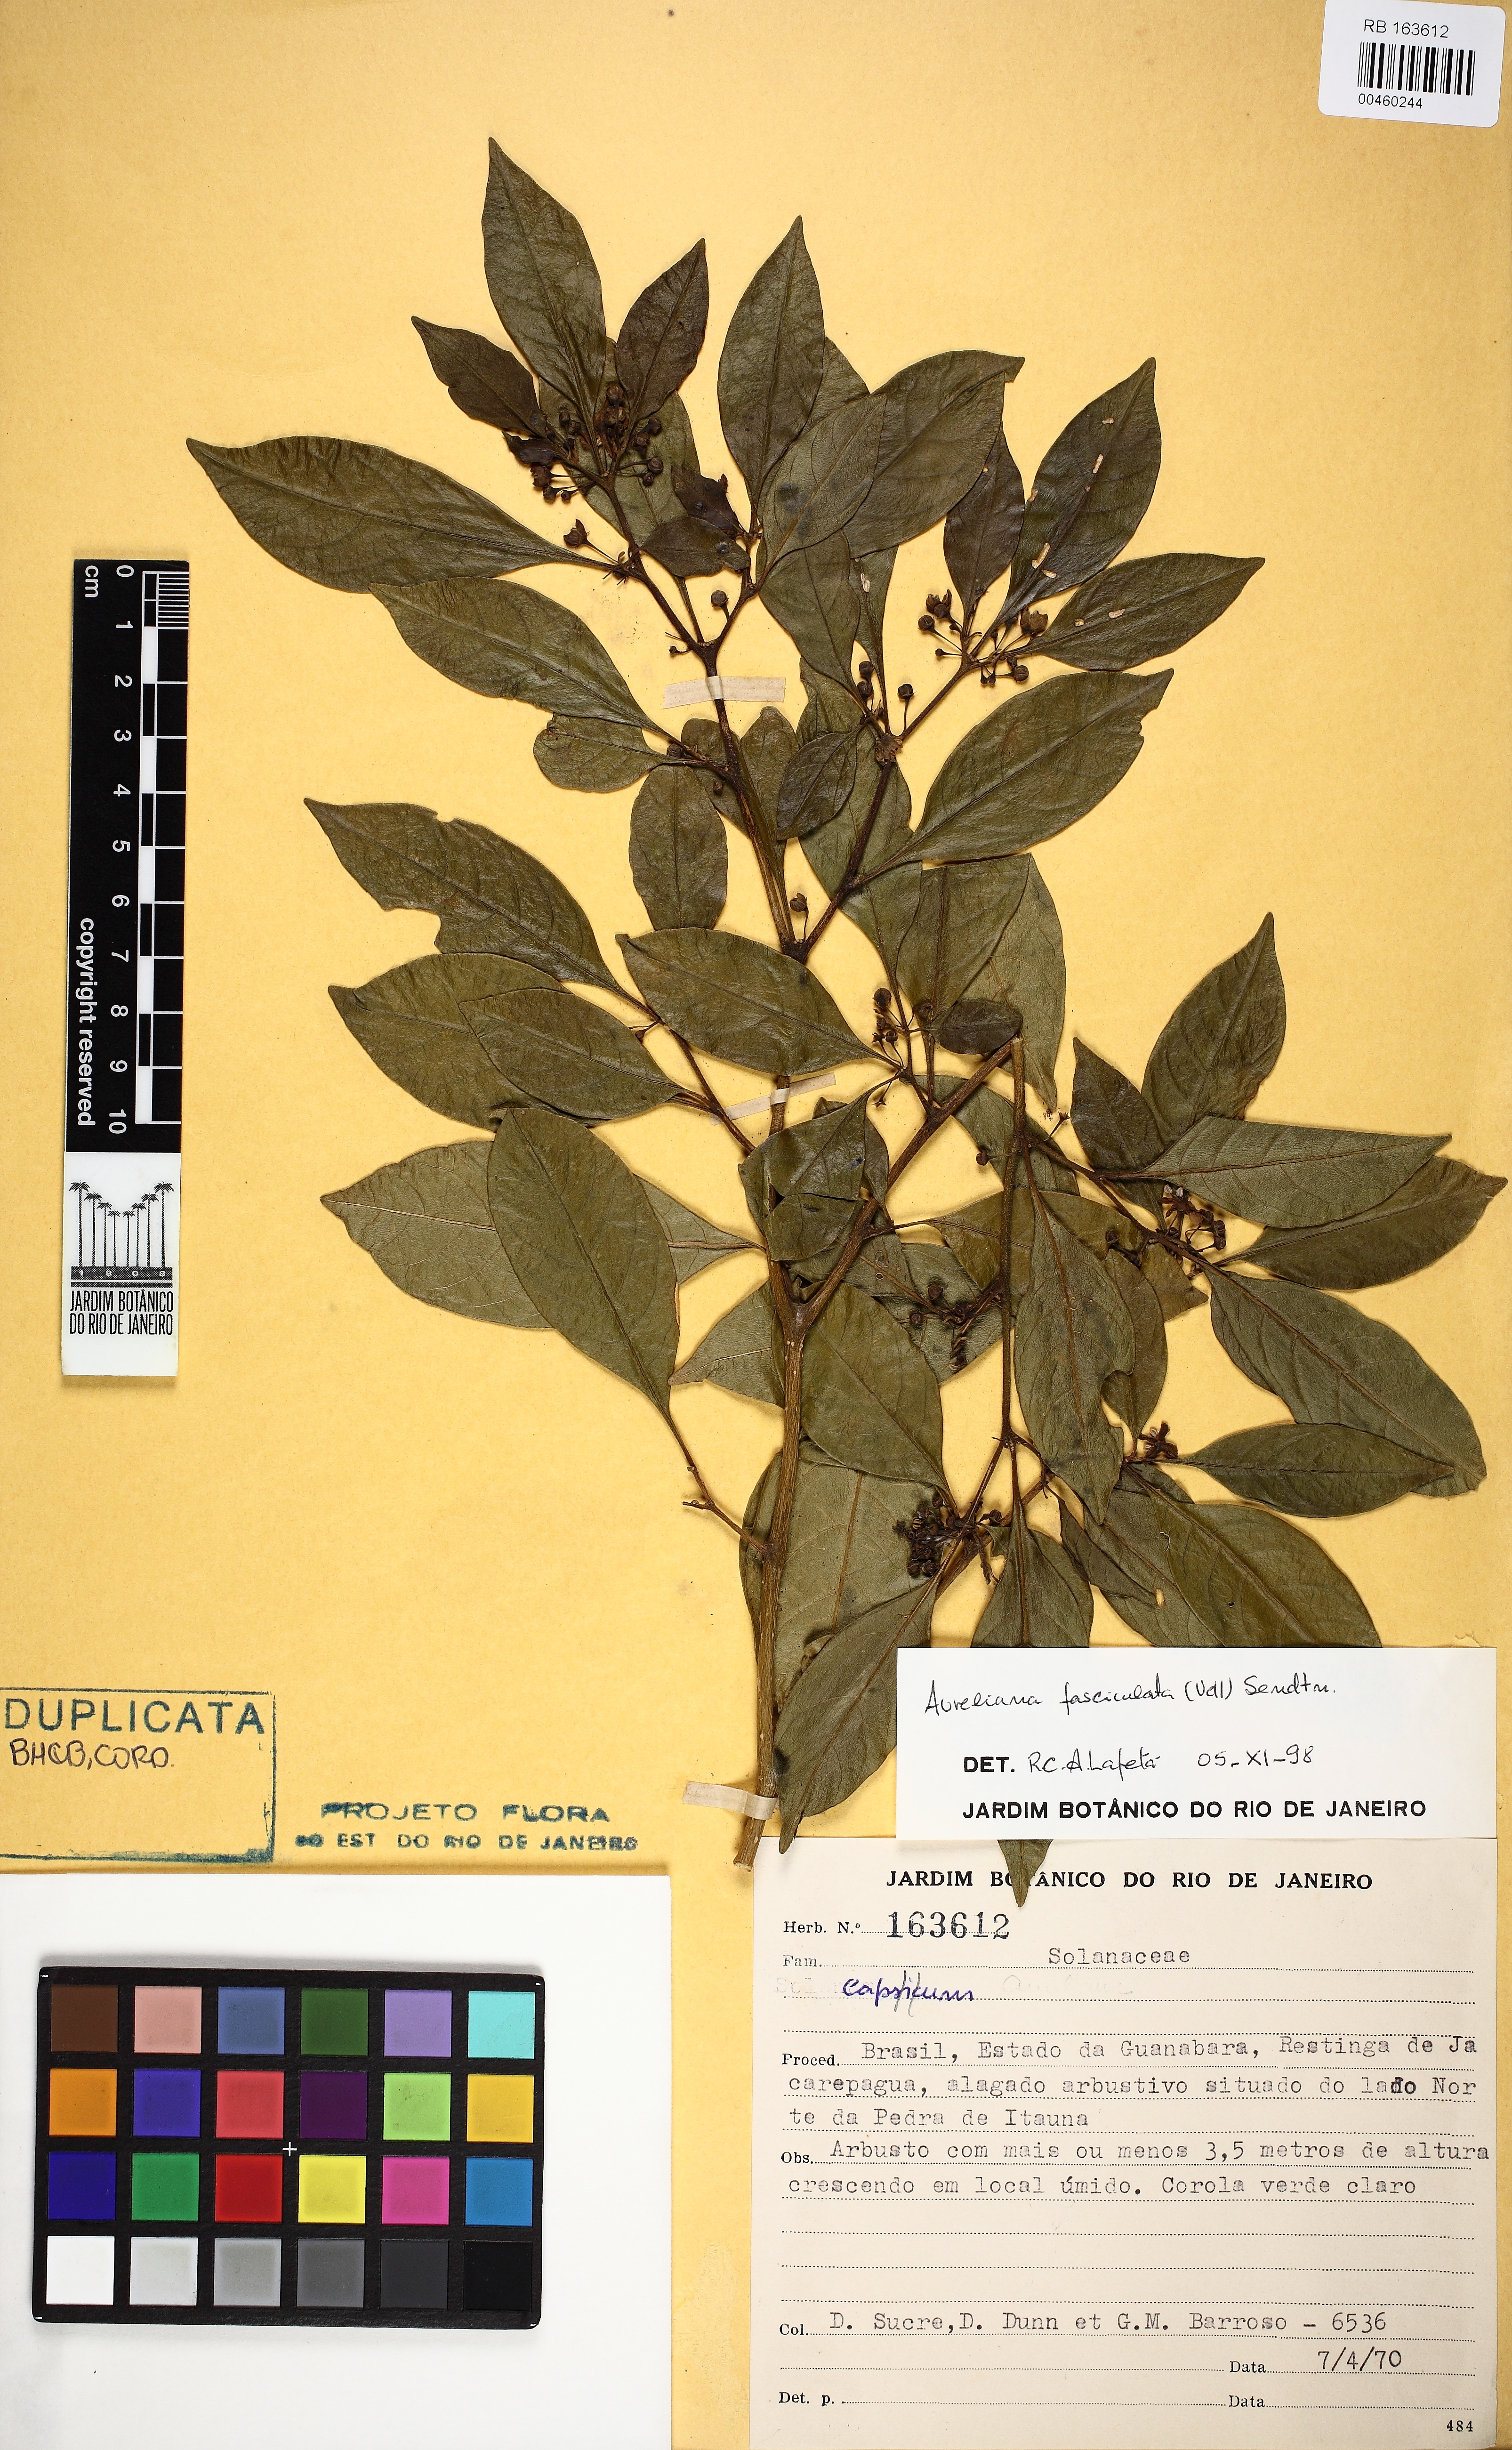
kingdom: Plantae
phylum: Tracheophyta
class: Magnoliopsida
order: Solanales
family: Solanaceae
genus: Athenaea
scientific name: Athenaea fasciculata
